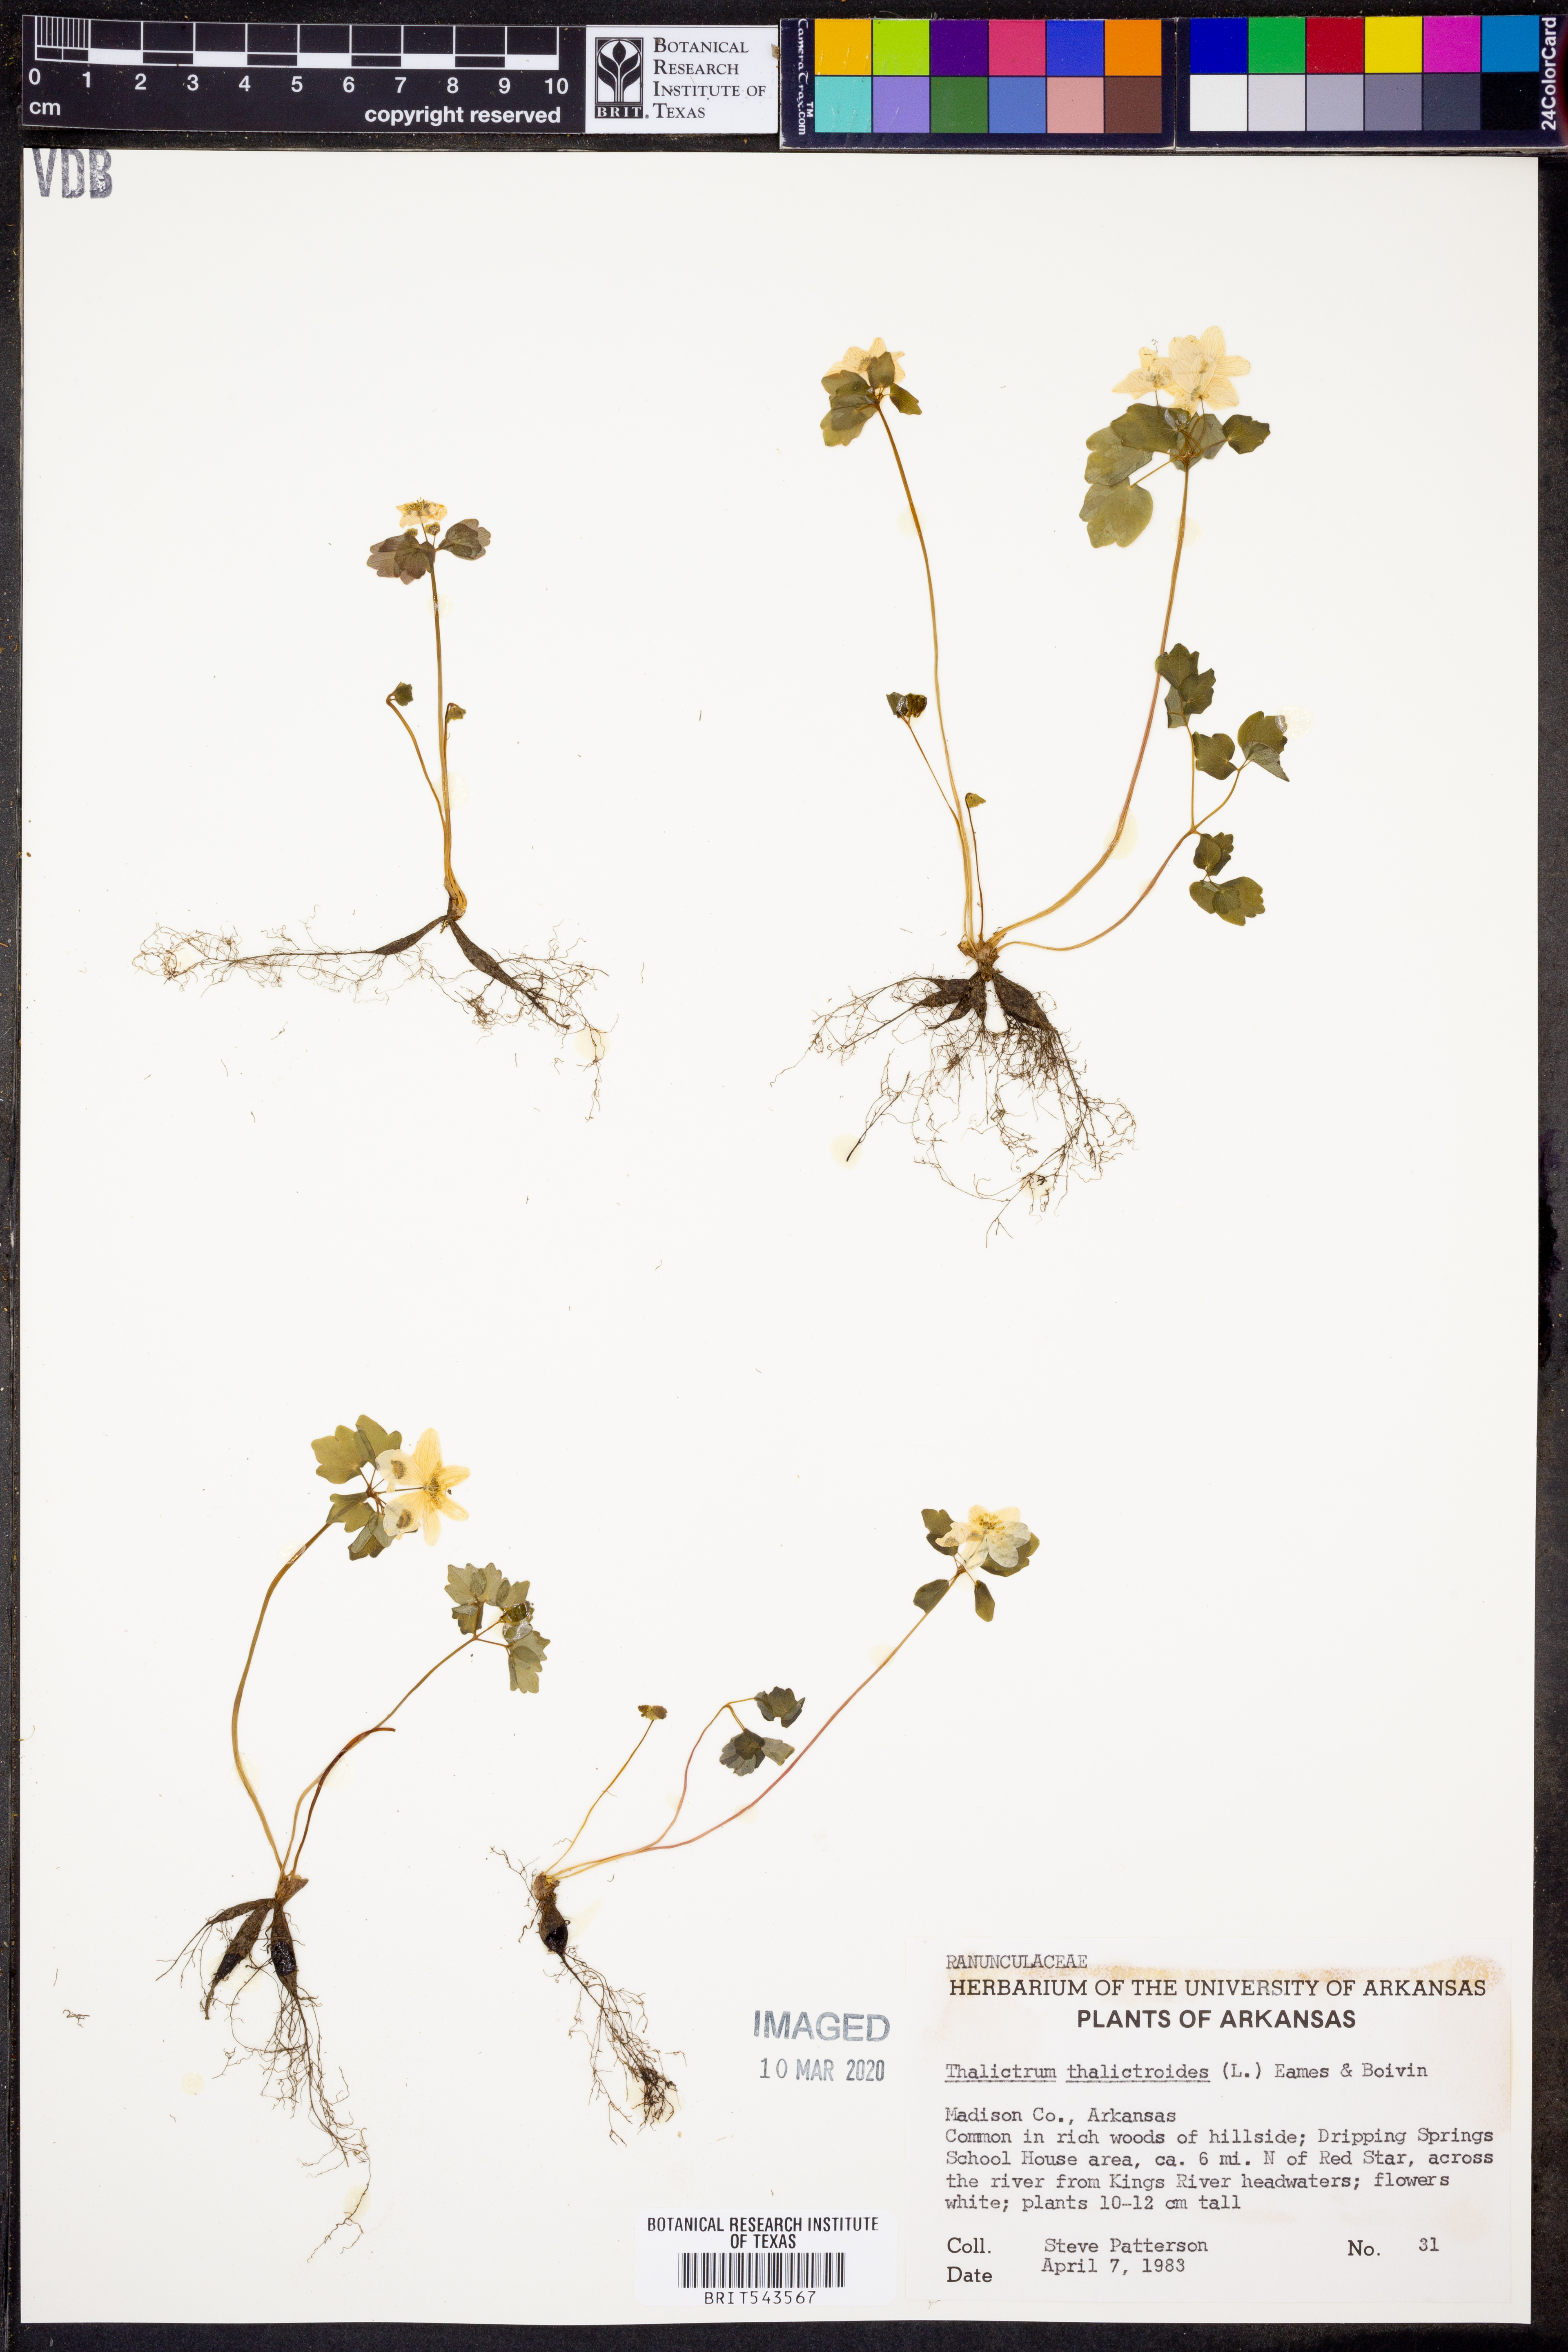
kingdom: Plantae
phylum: Tracheophyta
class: Magnoliopsida
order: Ranunculales
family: Ranunculaceae
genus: Thalictrum
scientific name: Thalictrum thalictroides
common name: Rue-anemone
